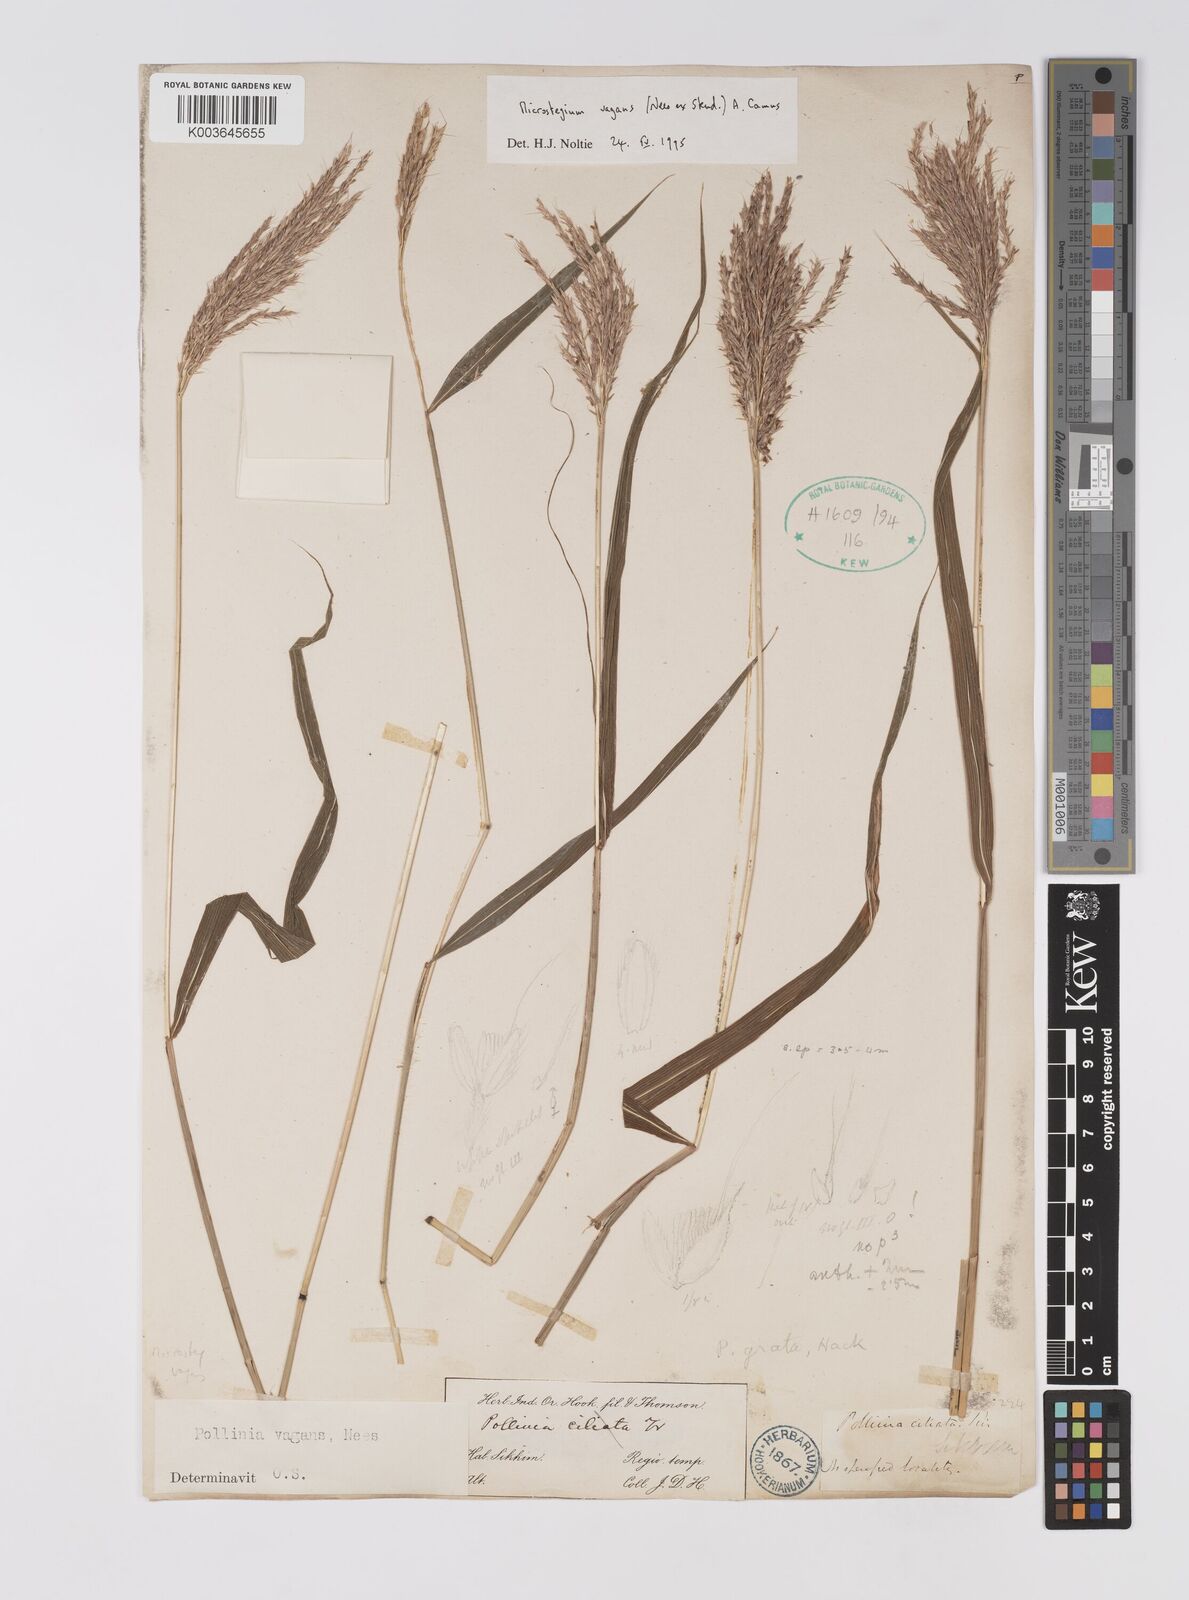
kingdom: Plantae
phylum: Tracheophyta
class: Liliopsida
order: Poales
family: Poaceae
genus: Microstegium
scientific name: Microstegium fasciculatum
